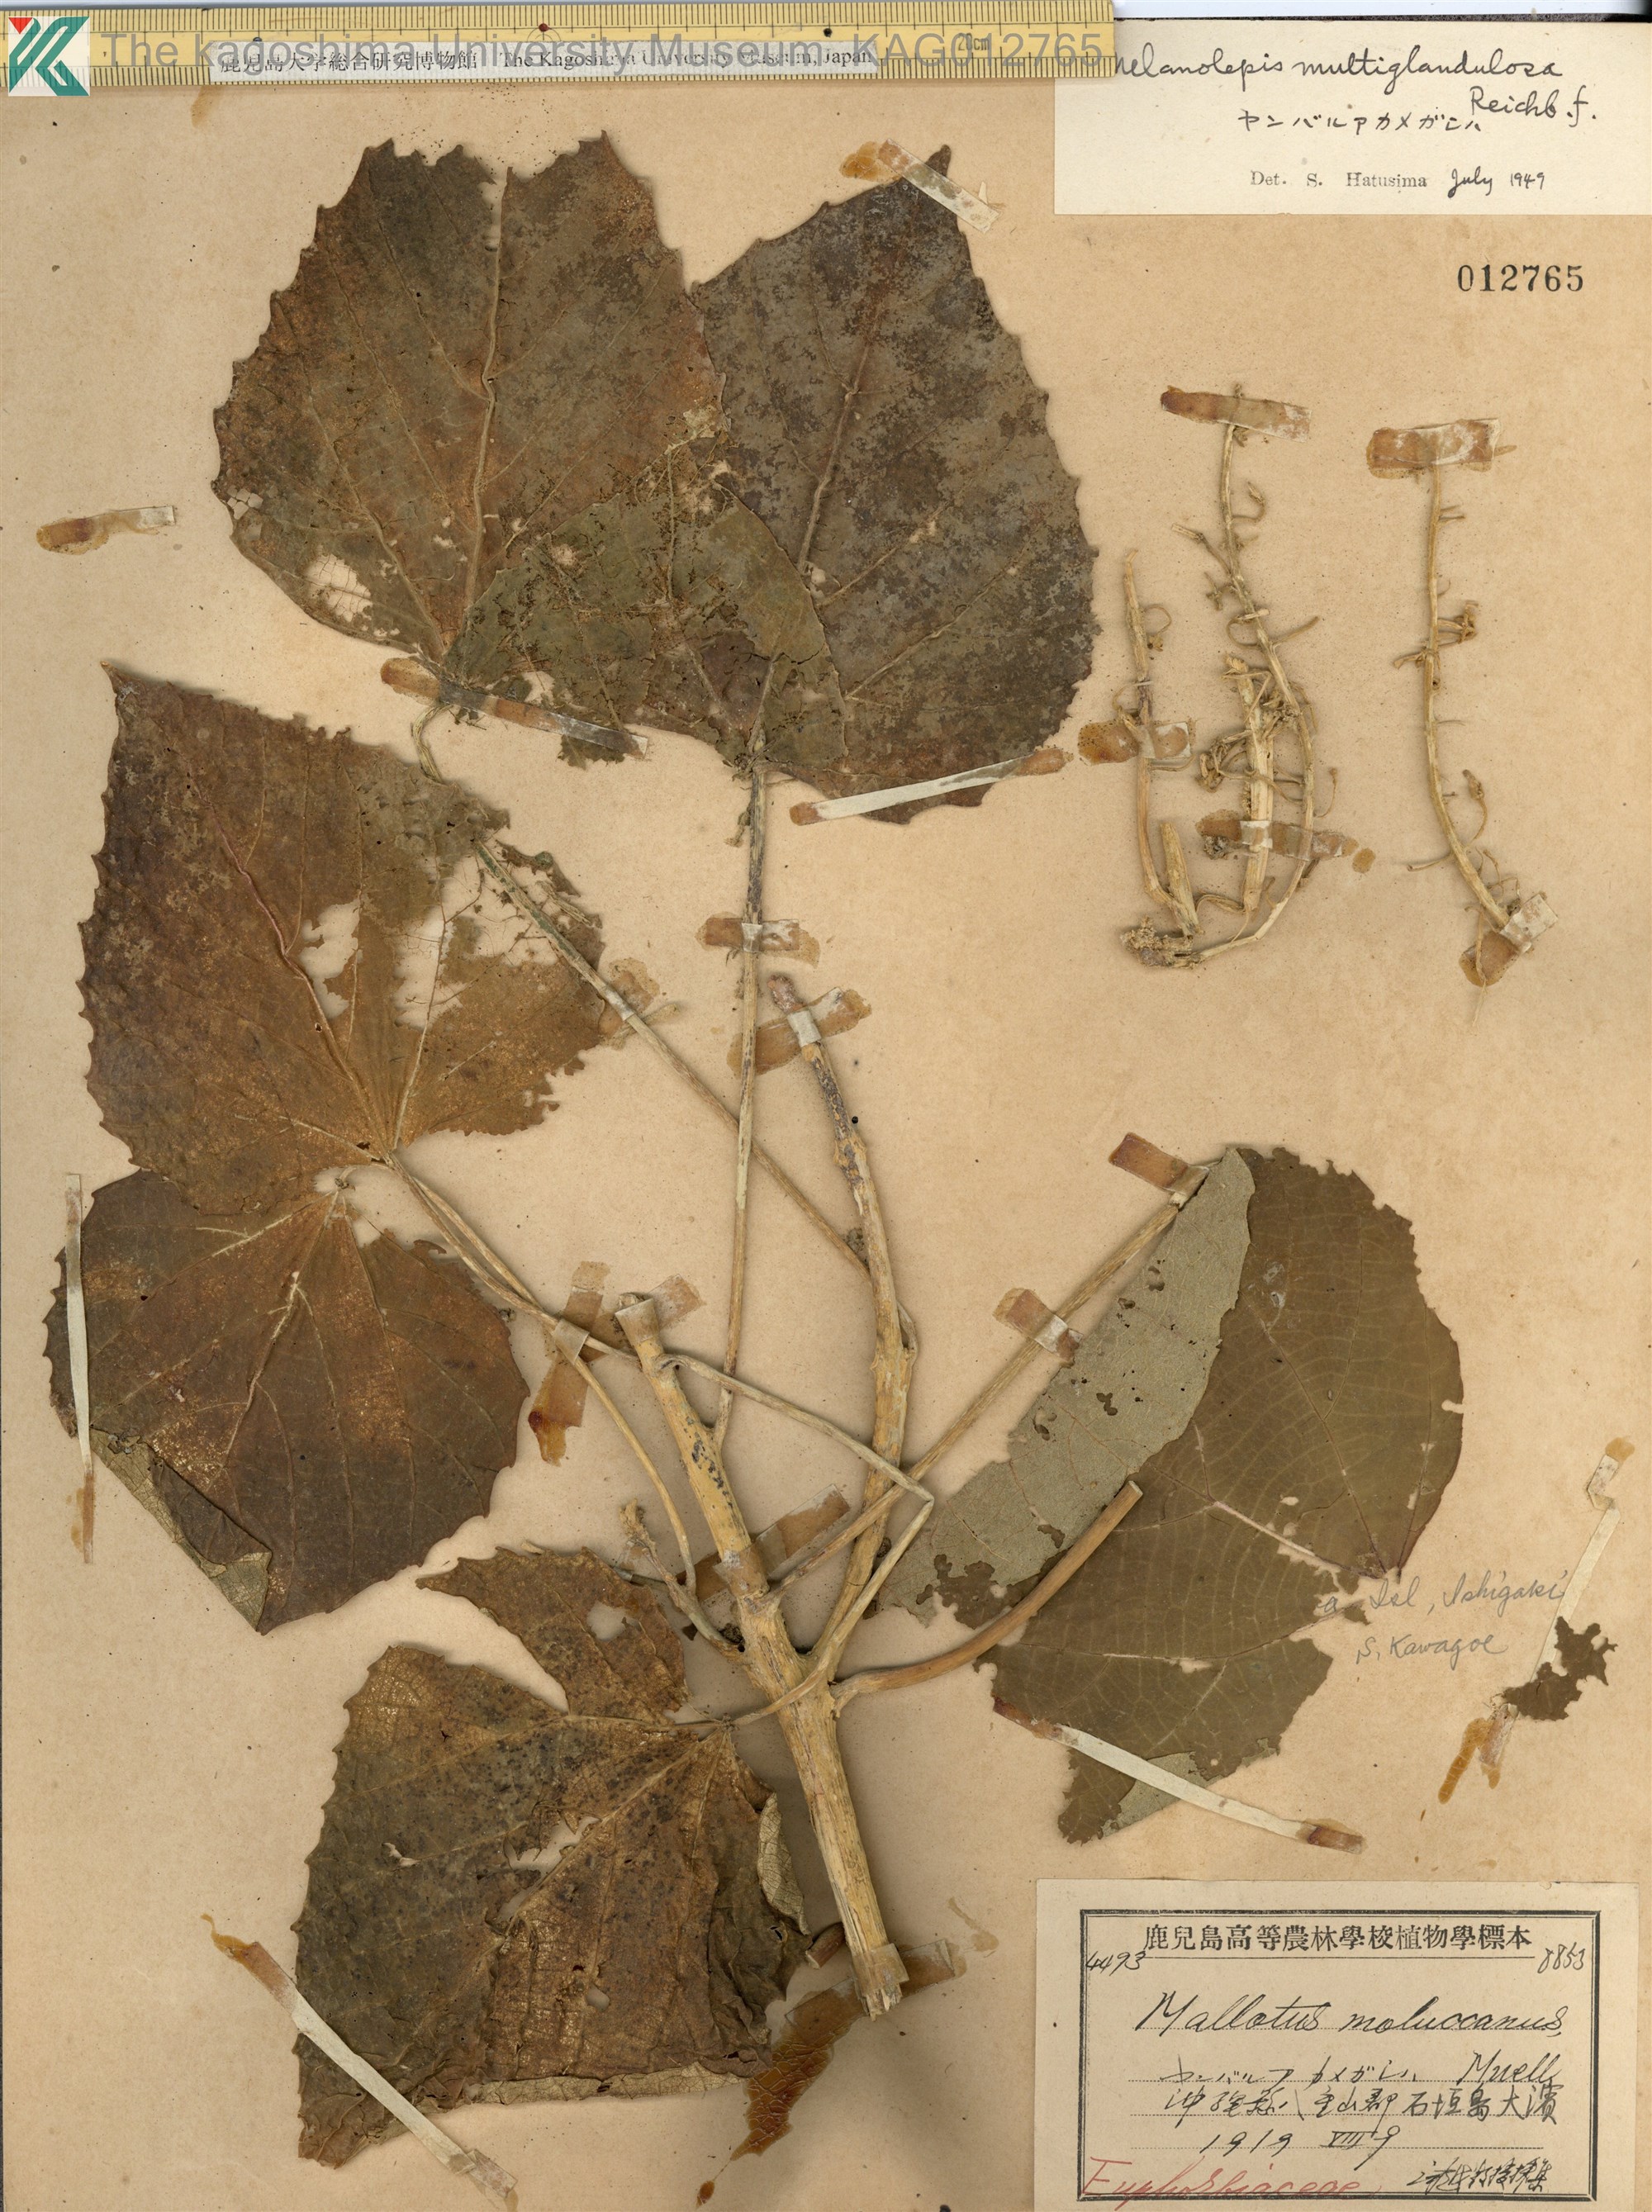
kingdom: Plantae
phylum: Tracheophyta
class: Magnoliopsida
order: Malpighiales
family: Euphorbiaceae
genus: Melanolepis
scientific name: Melanolepis multiglandulosa
